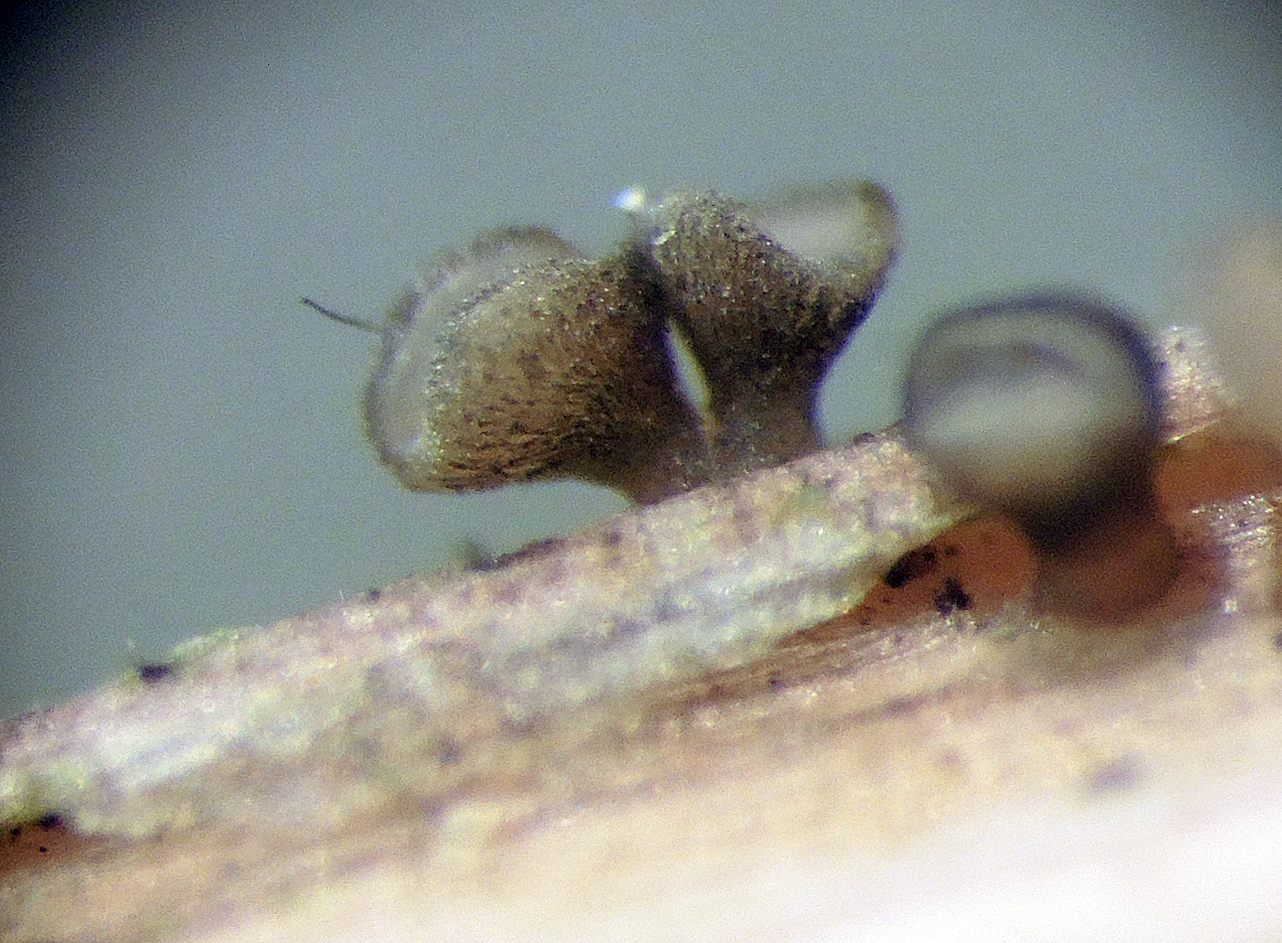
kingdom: Fungi
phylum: Ascomycota
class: Leotiomycetes
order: Helotiales
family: Helotiaceae
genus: Cyathicula
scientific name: Cyathicula cyathoidea
